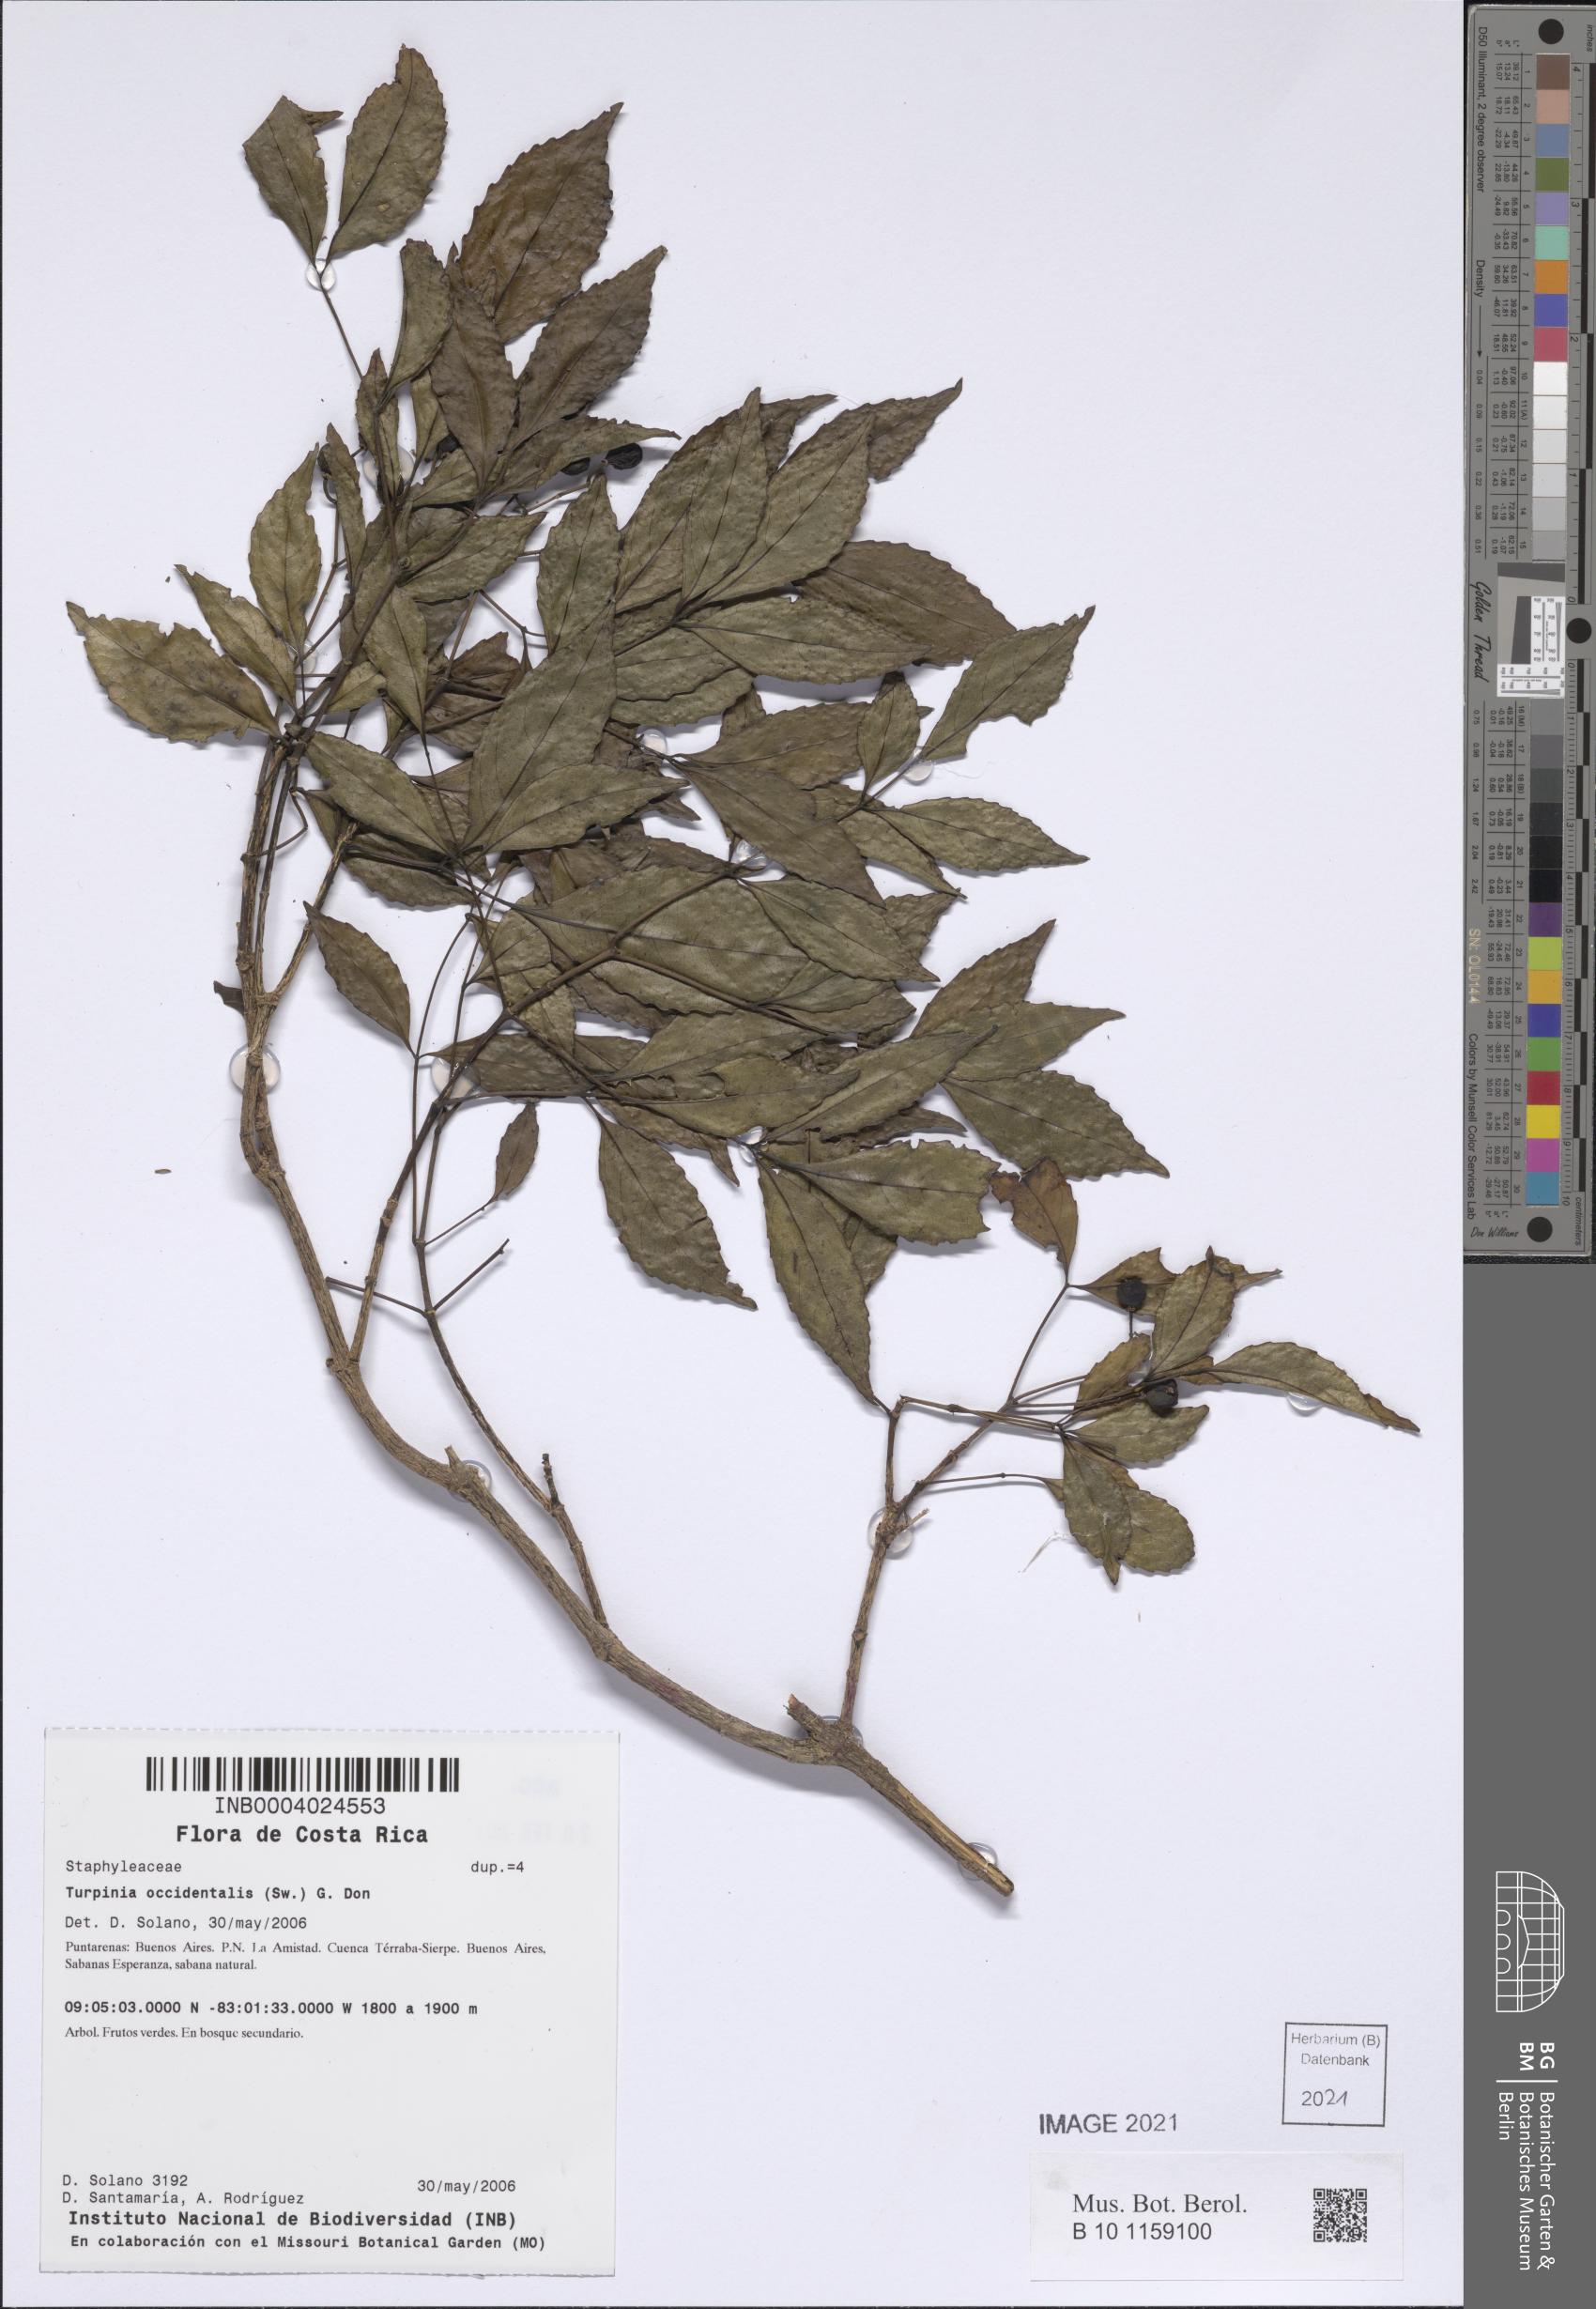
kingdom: Plantae
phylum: Tracheophyta
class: Magnoliopsida
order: Crossosomatales
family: Staphyleaceae
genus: Turpinia
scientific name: Turpinia occidentalis
